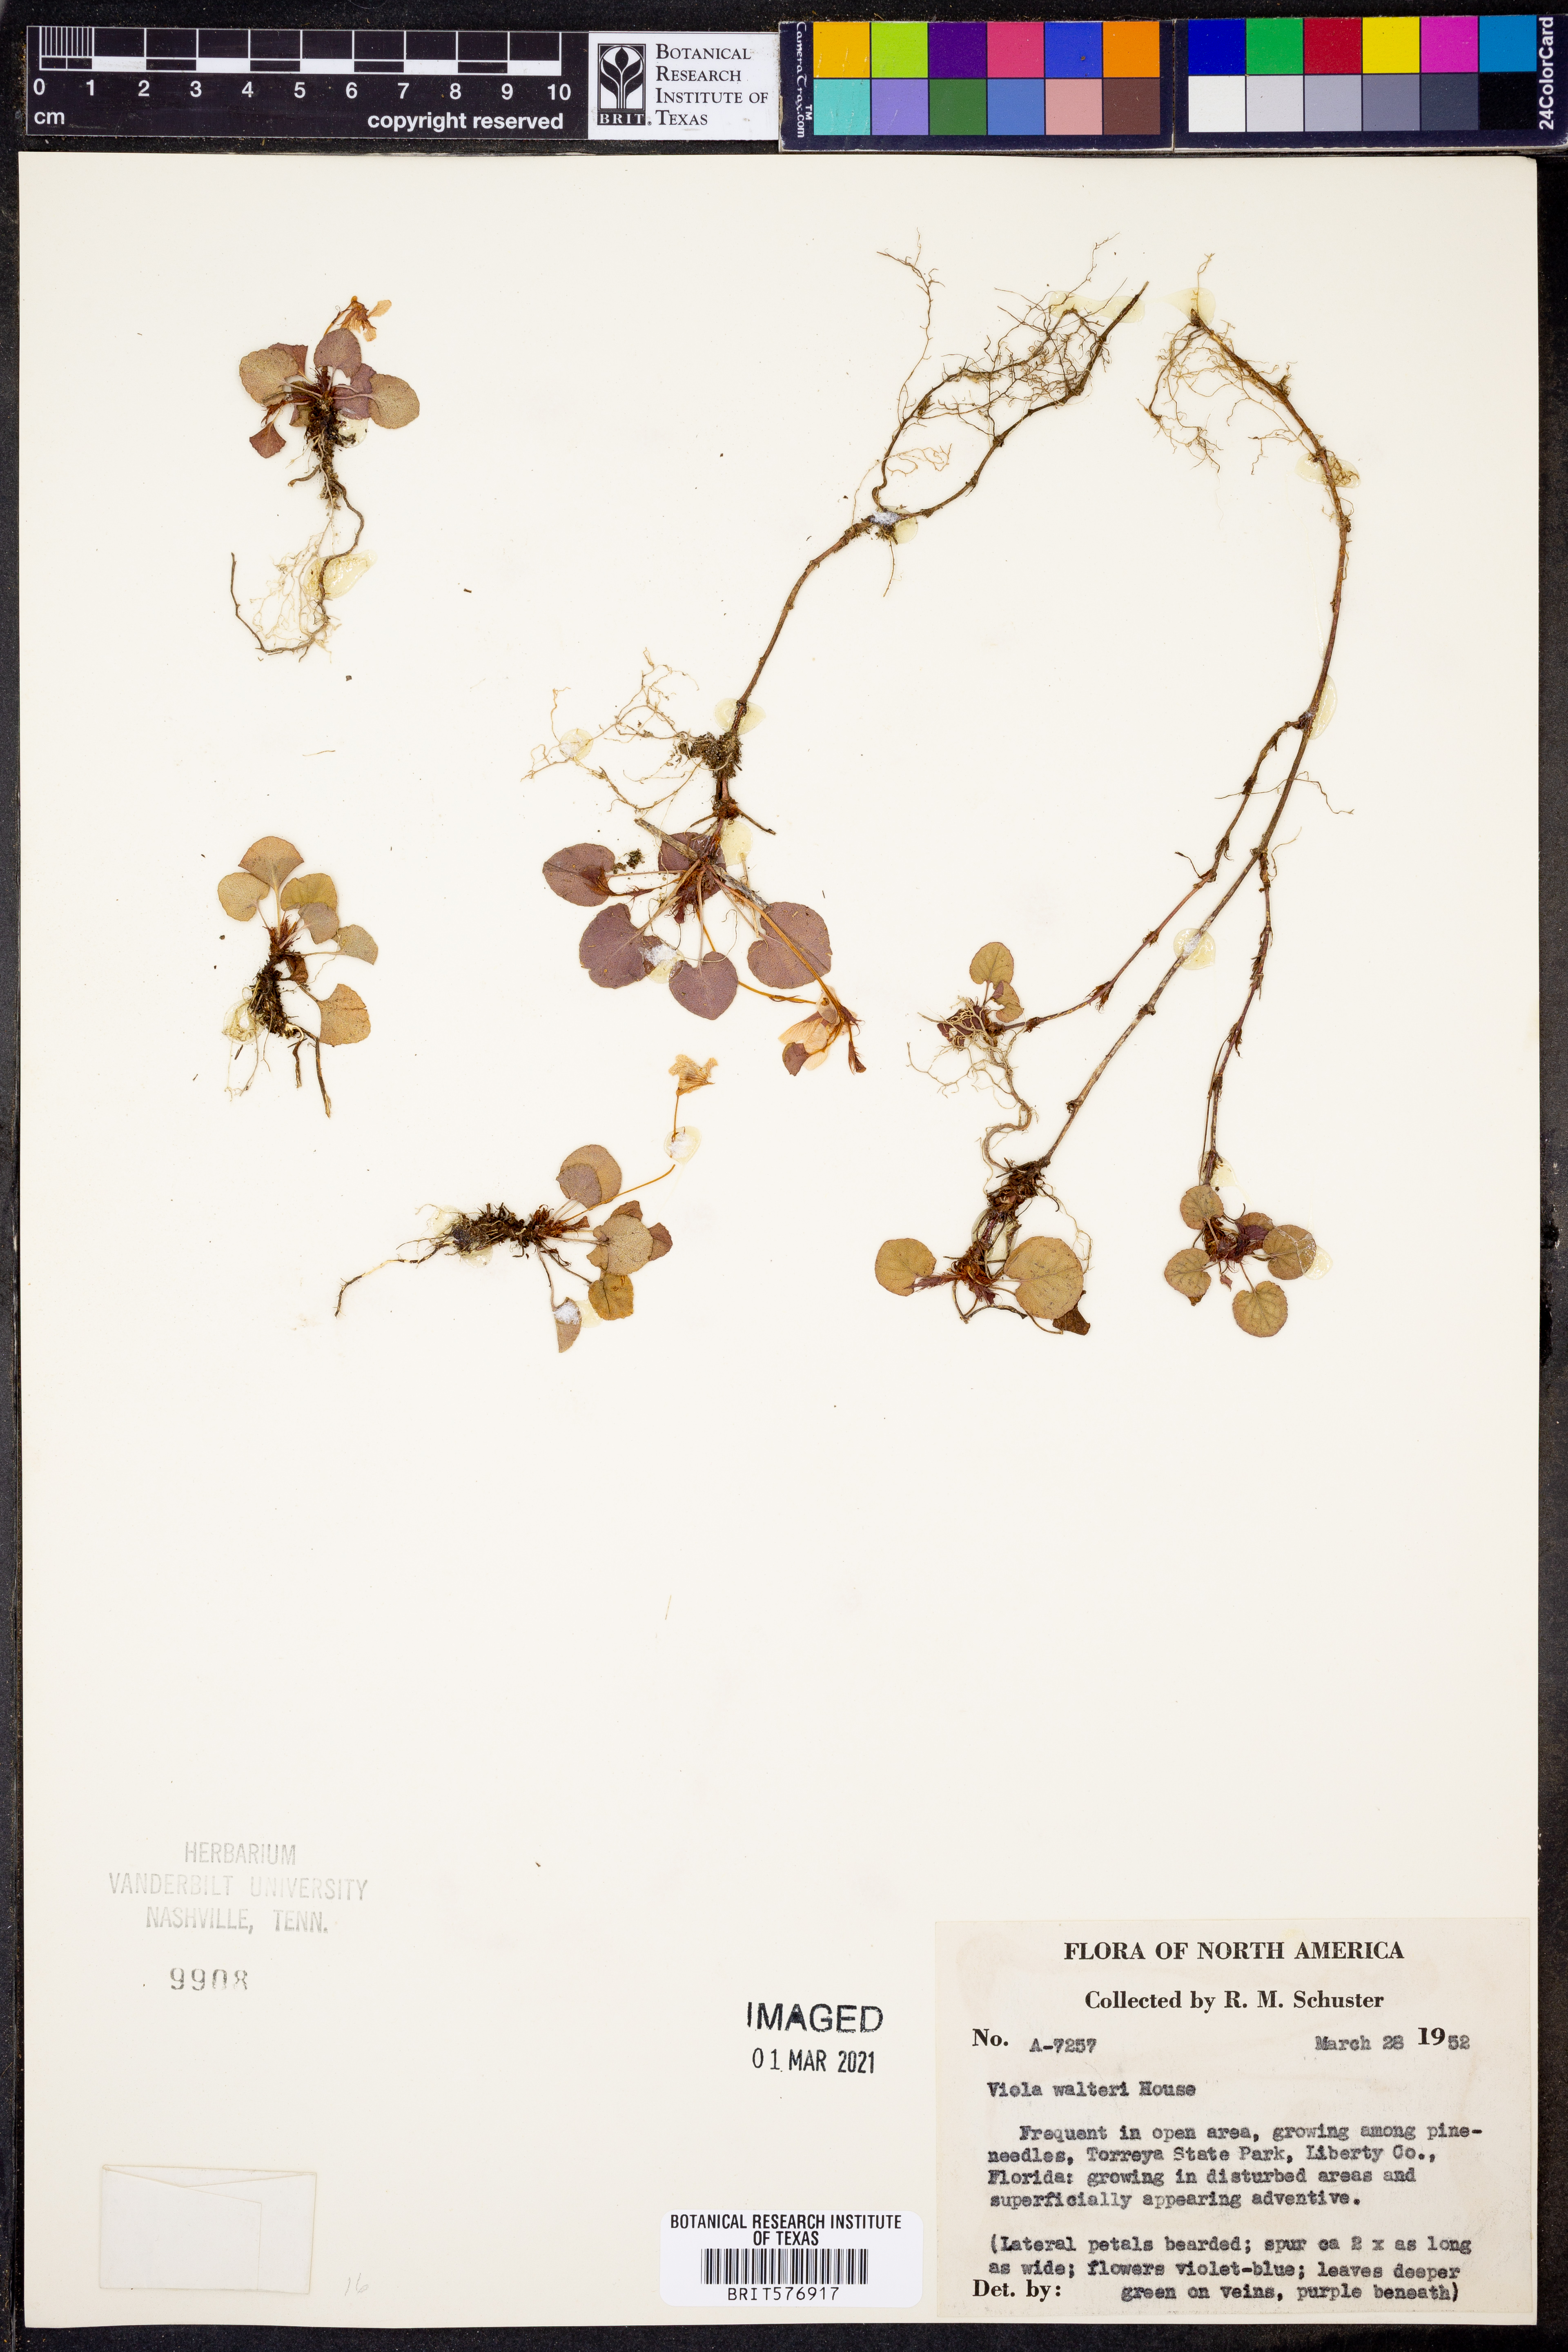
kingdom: Plantae
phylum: Tracheophyta
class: Magnoliopsida
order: Malpighiales
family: Violaceae
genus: Viola
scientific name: Viola walteri
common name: Prostrate southern violet
